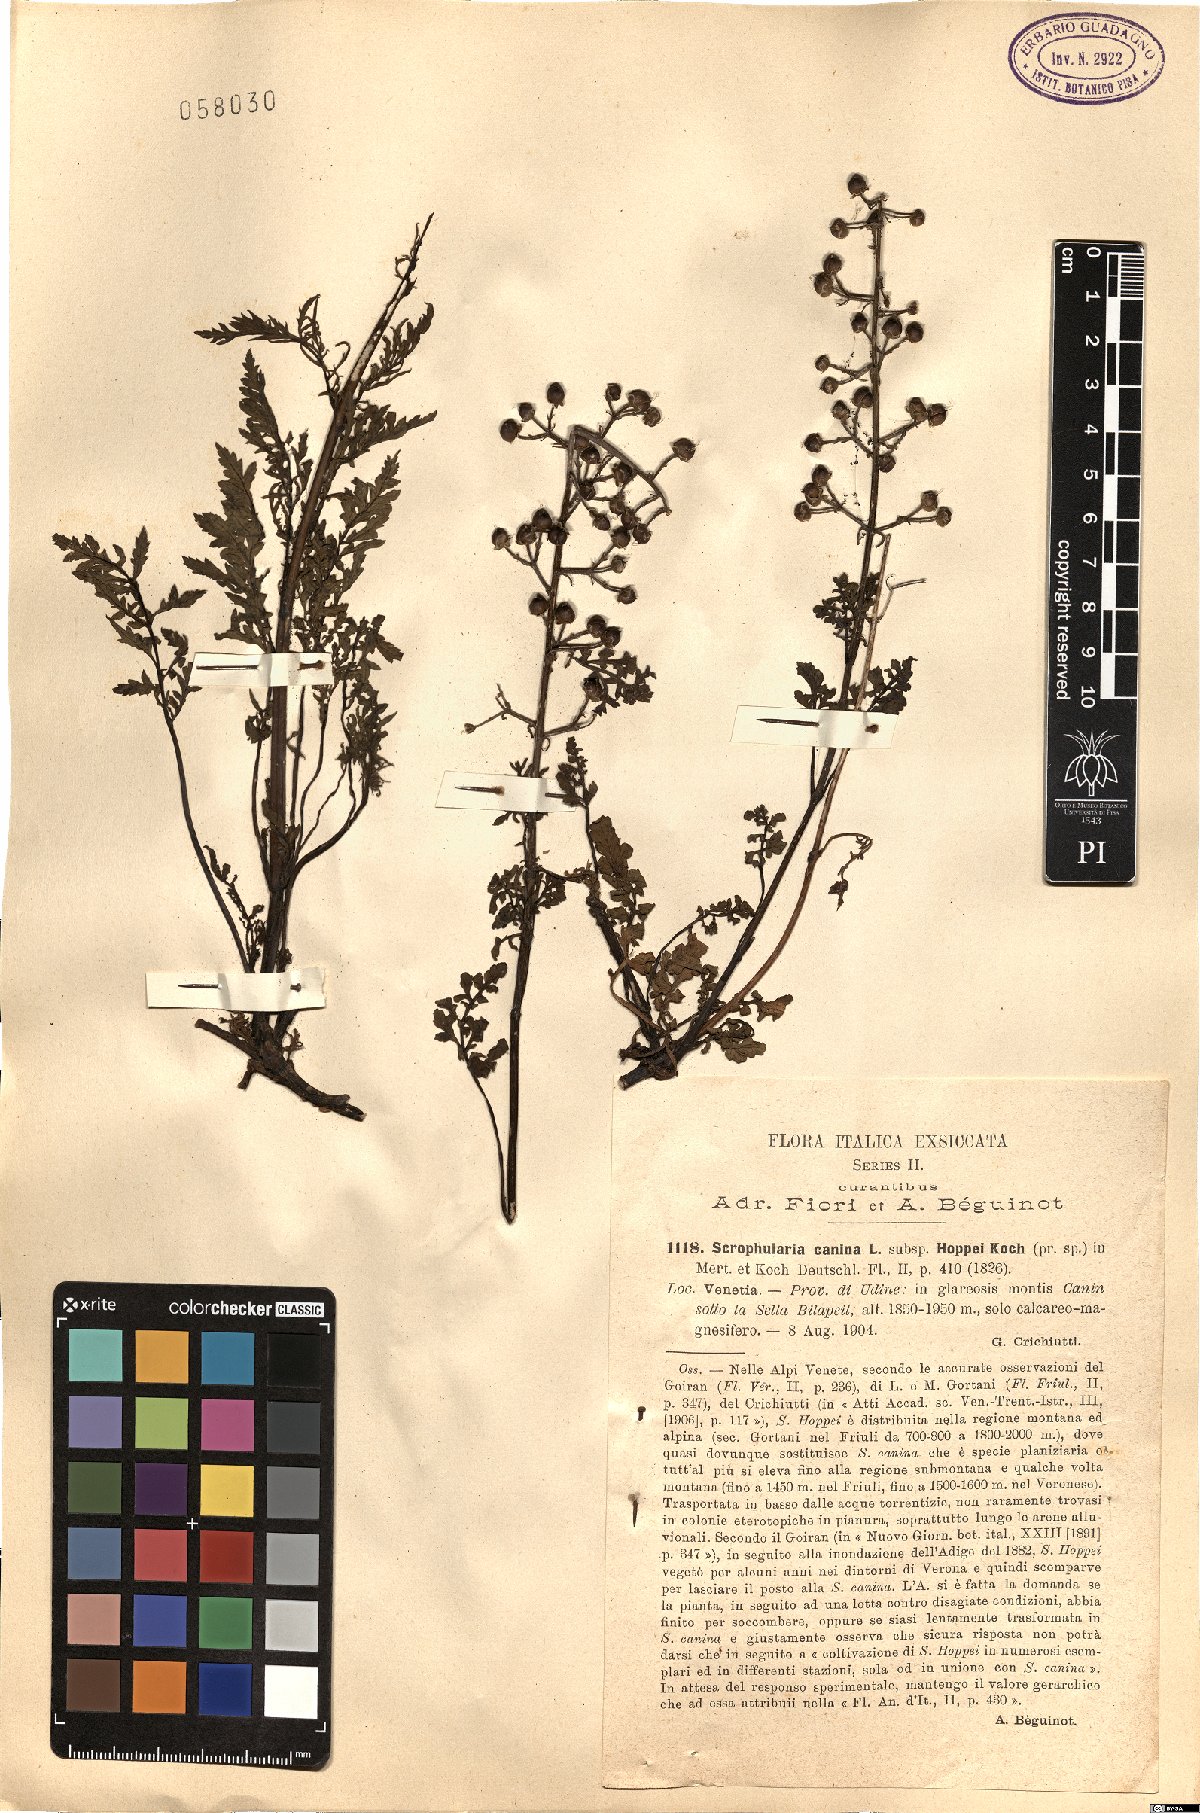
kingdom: Plantae
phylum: Tracheophyta
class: Magnoliopsida
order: Lamiales
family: Scrophulariaceae
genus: Scrophularia
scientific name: Scrophularia canina
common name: French figwort
